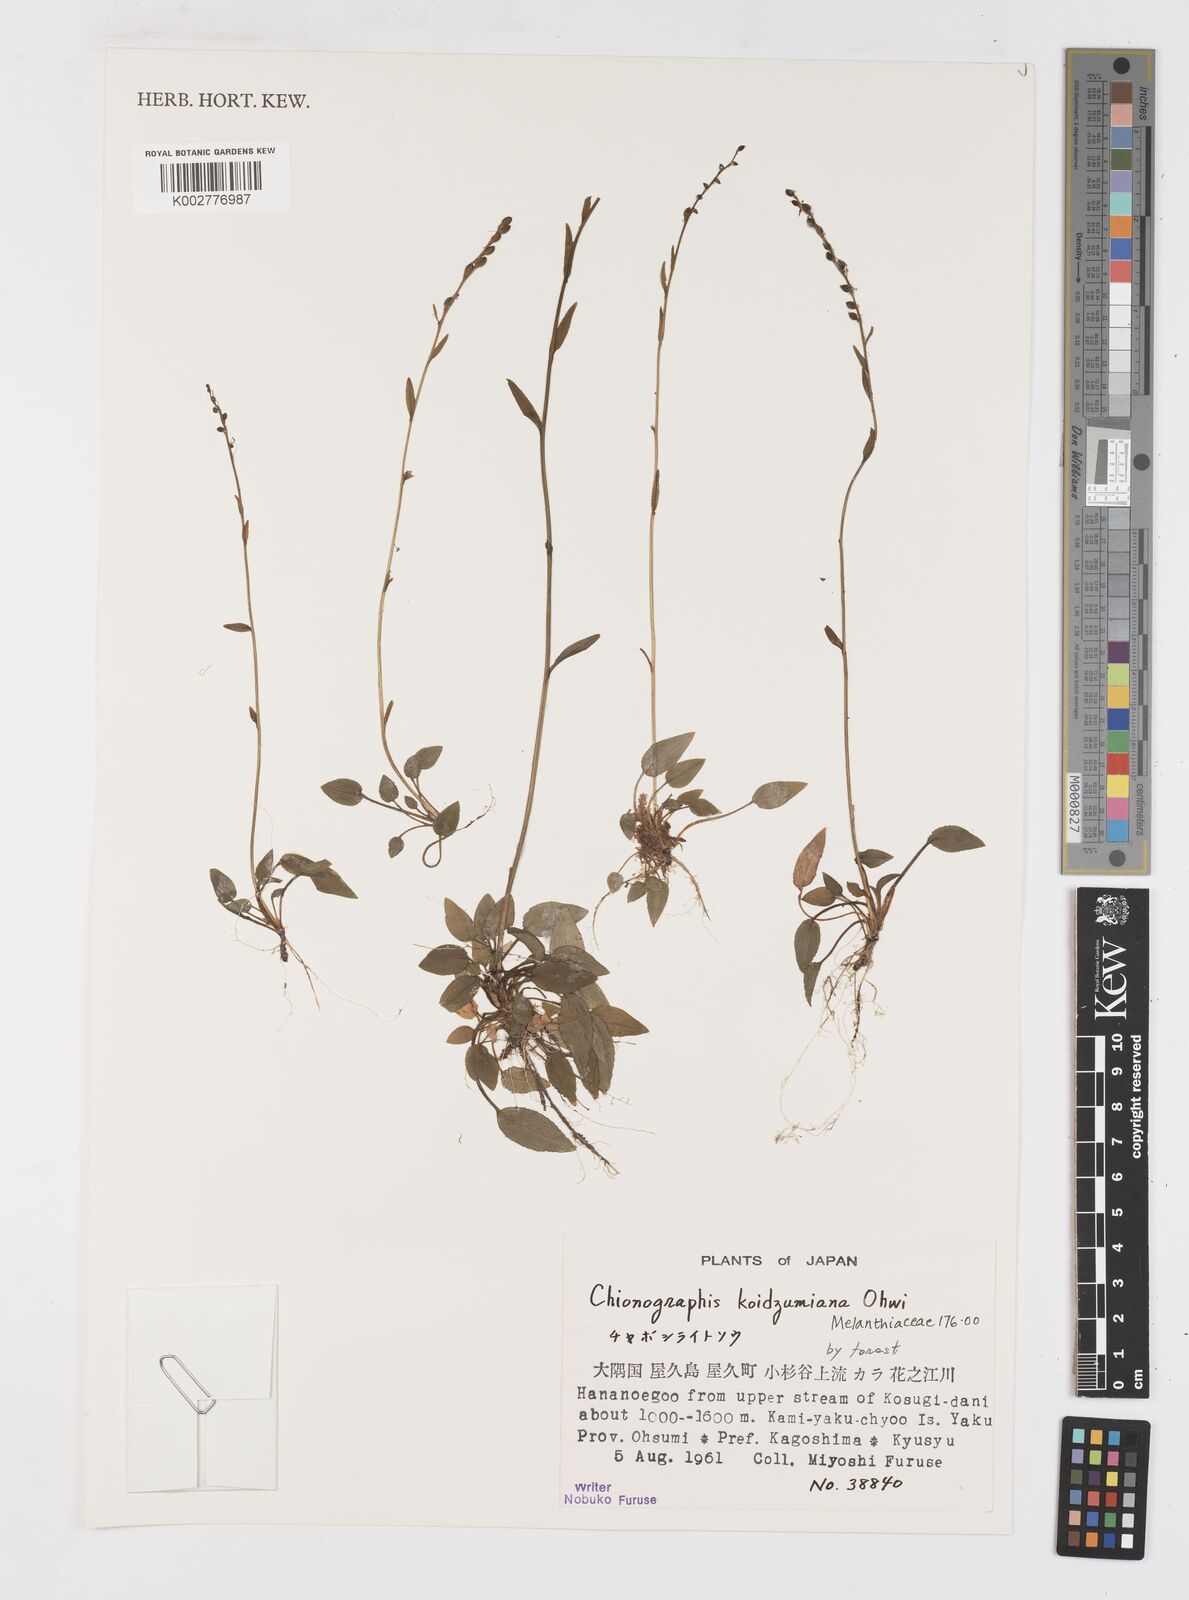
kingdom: Plantae
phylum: Tracheophyta
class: Liliopsida
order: Liliales
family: Melanthiaceae
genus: Chamaelirium
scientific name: Chamaelirium koidzumianum
